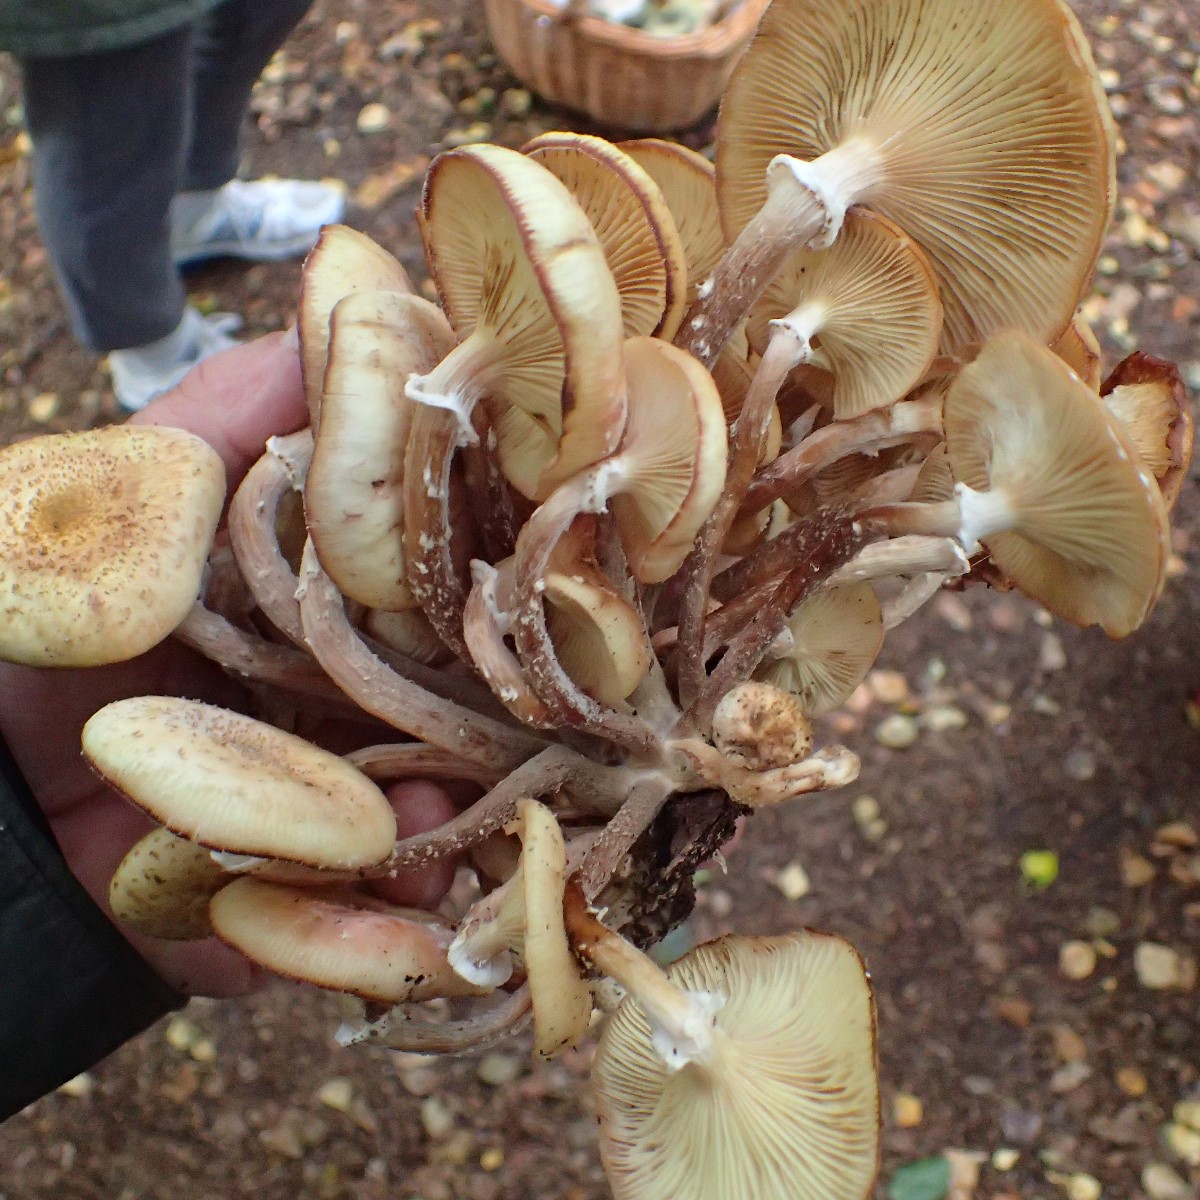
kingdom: Fungi
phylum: Basidiomycota
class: Agaricomycetes
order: Agaricales
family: Physalacriaceae
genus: Armillaria
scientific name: Armillaria borealis
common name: nordlig honningsvamp
